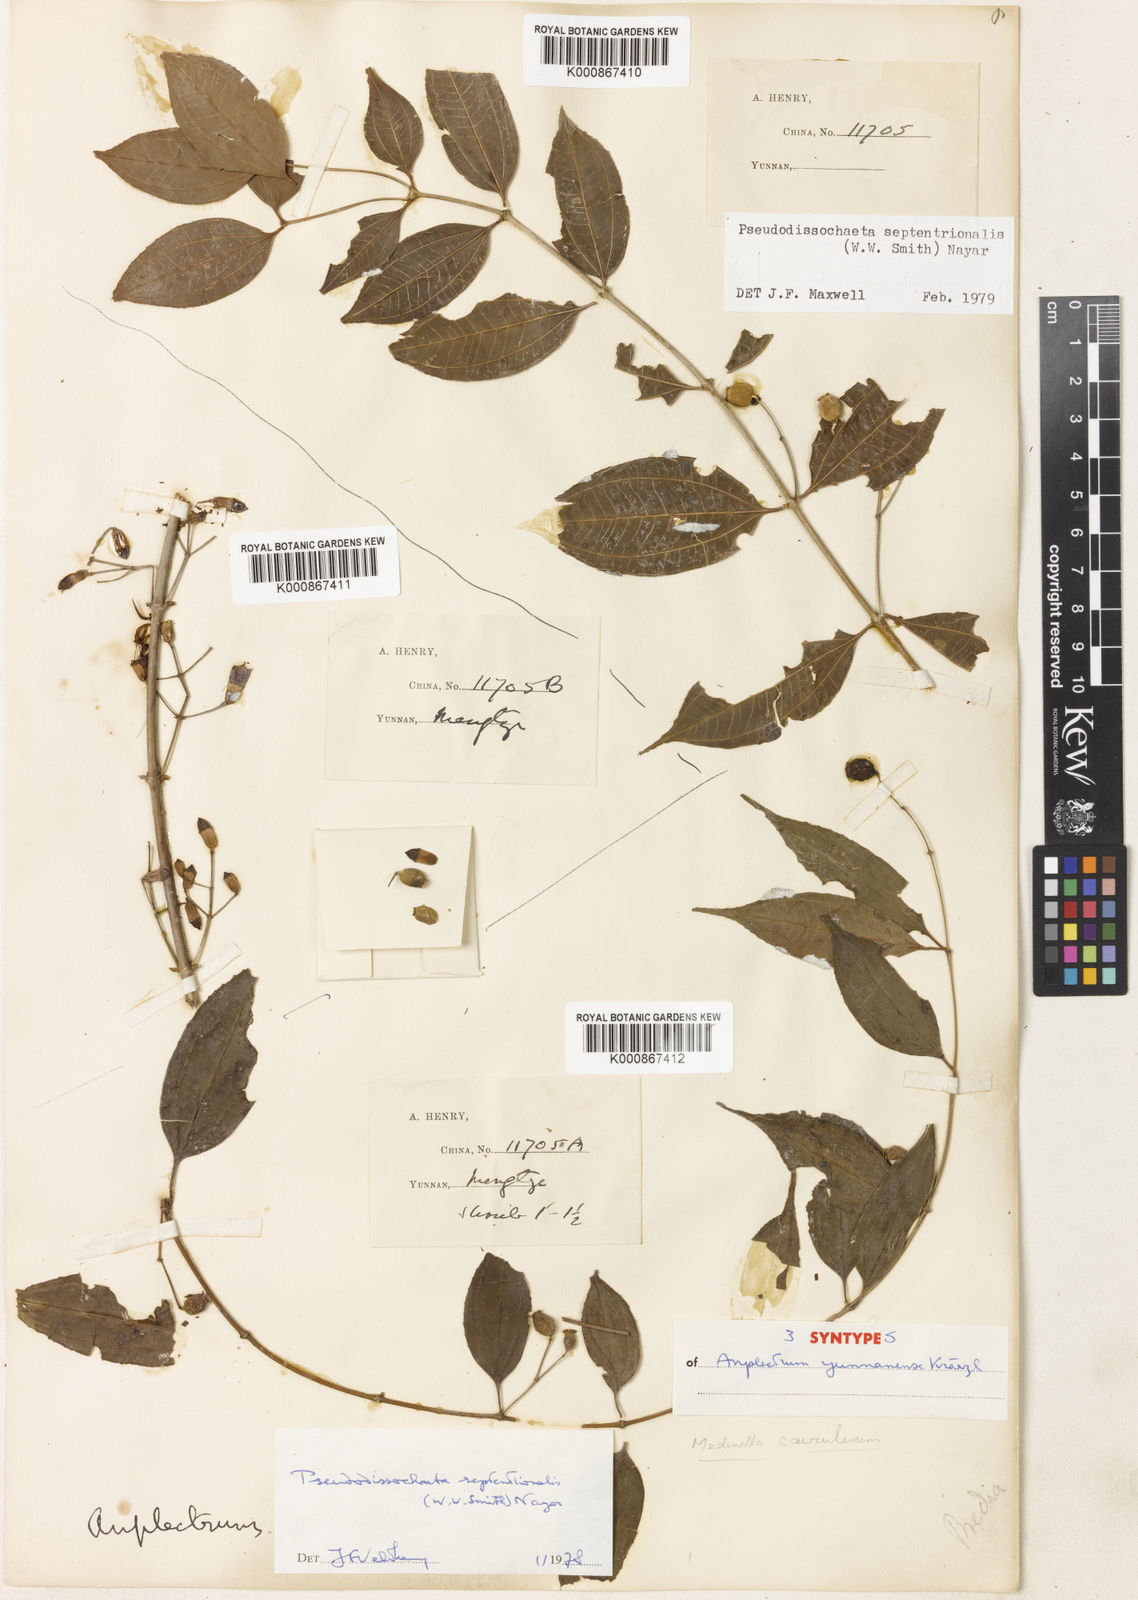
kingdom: Plantae
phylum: Tracheophyta
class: Magnoliopsida
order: Myrtales
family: Melastomataceae
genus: Pseudodissochaeta
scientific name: Pseudodissochaeta septentrionalis
